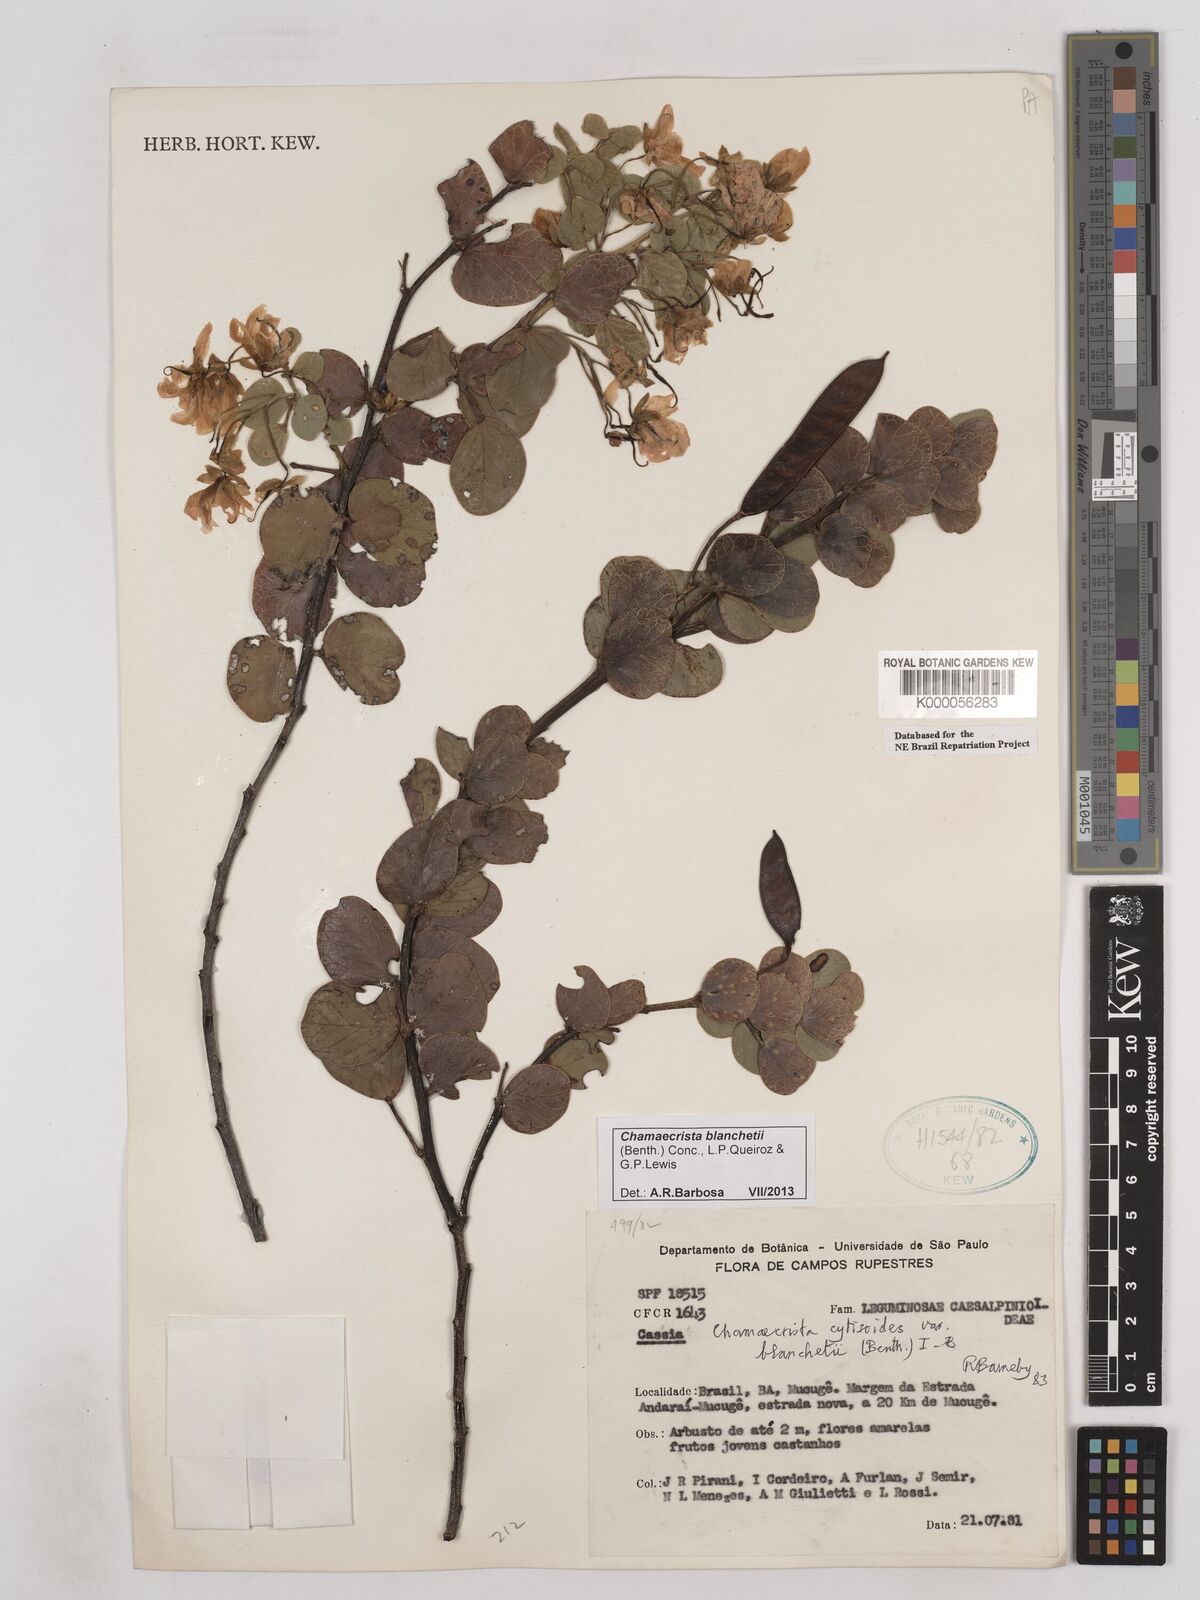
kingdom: Plantae
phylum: Tracheophyta
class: Magnoliopsida
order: Fabales
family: Fabaceae
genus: Chamaecrista
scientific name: Chamaecrista cytisoides
